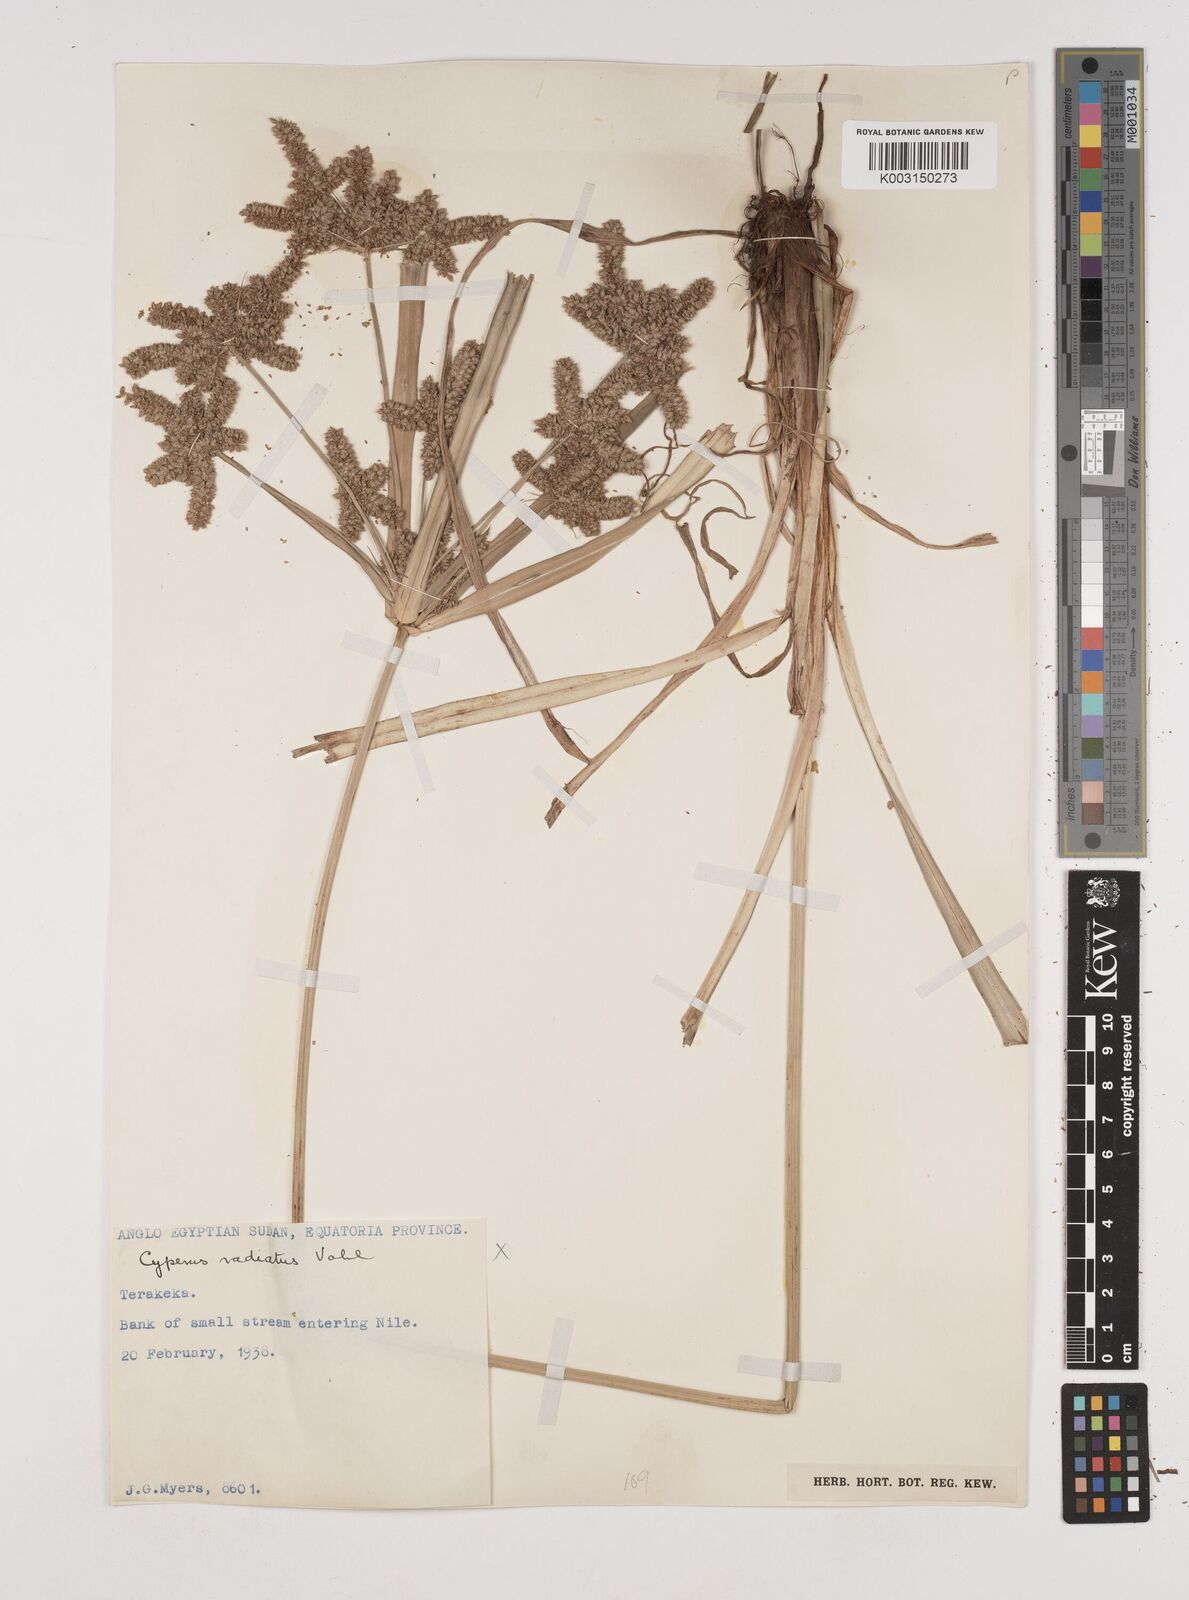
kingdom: Plantae
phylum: Tracheophyta
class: Liliopsida
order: Poales
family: Cyperaceae
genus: Cyperus
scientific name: Cyperus alopecuroides
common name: Foxtail flatsedge
